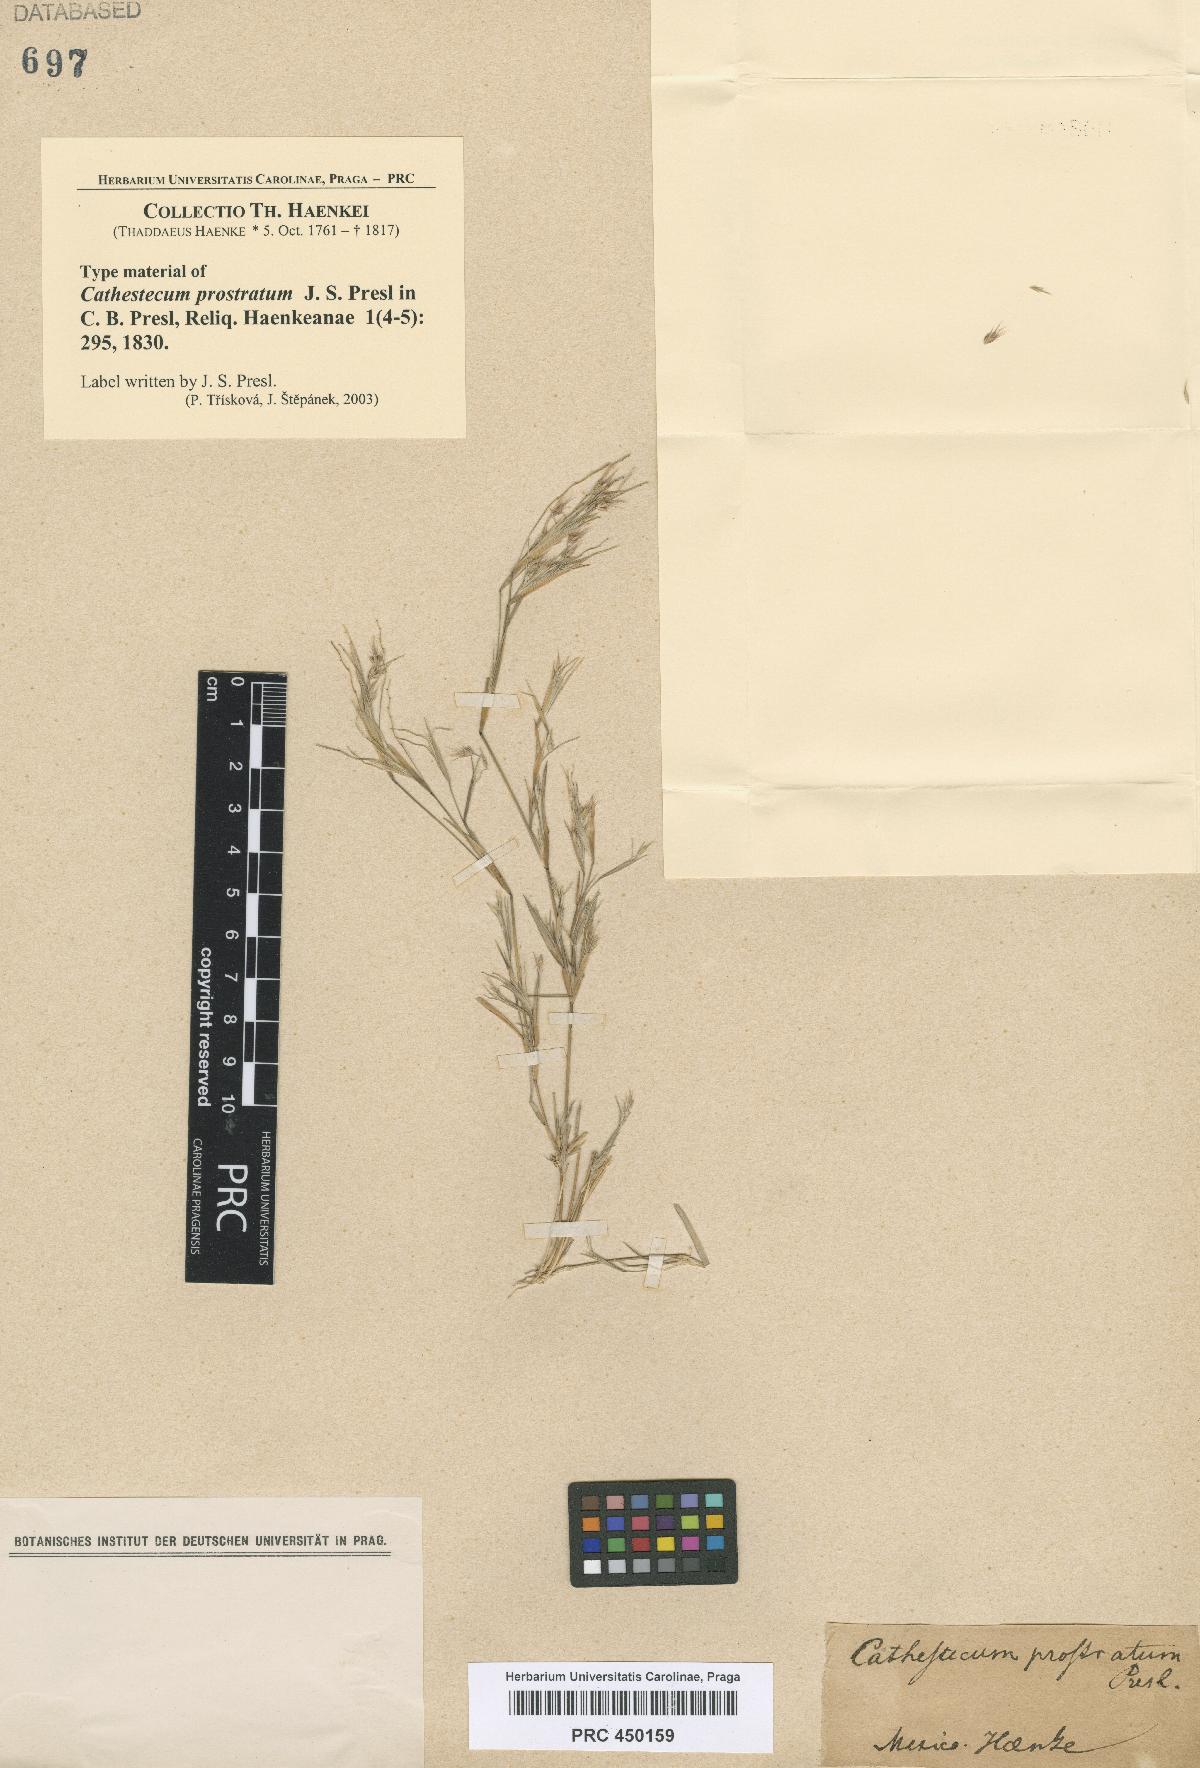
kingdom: Plantae
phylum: Tracheophyta
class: Liliopsida
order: Poales
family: Poaceae
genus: Bouteloua
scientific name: Bouteloua griffithsii
